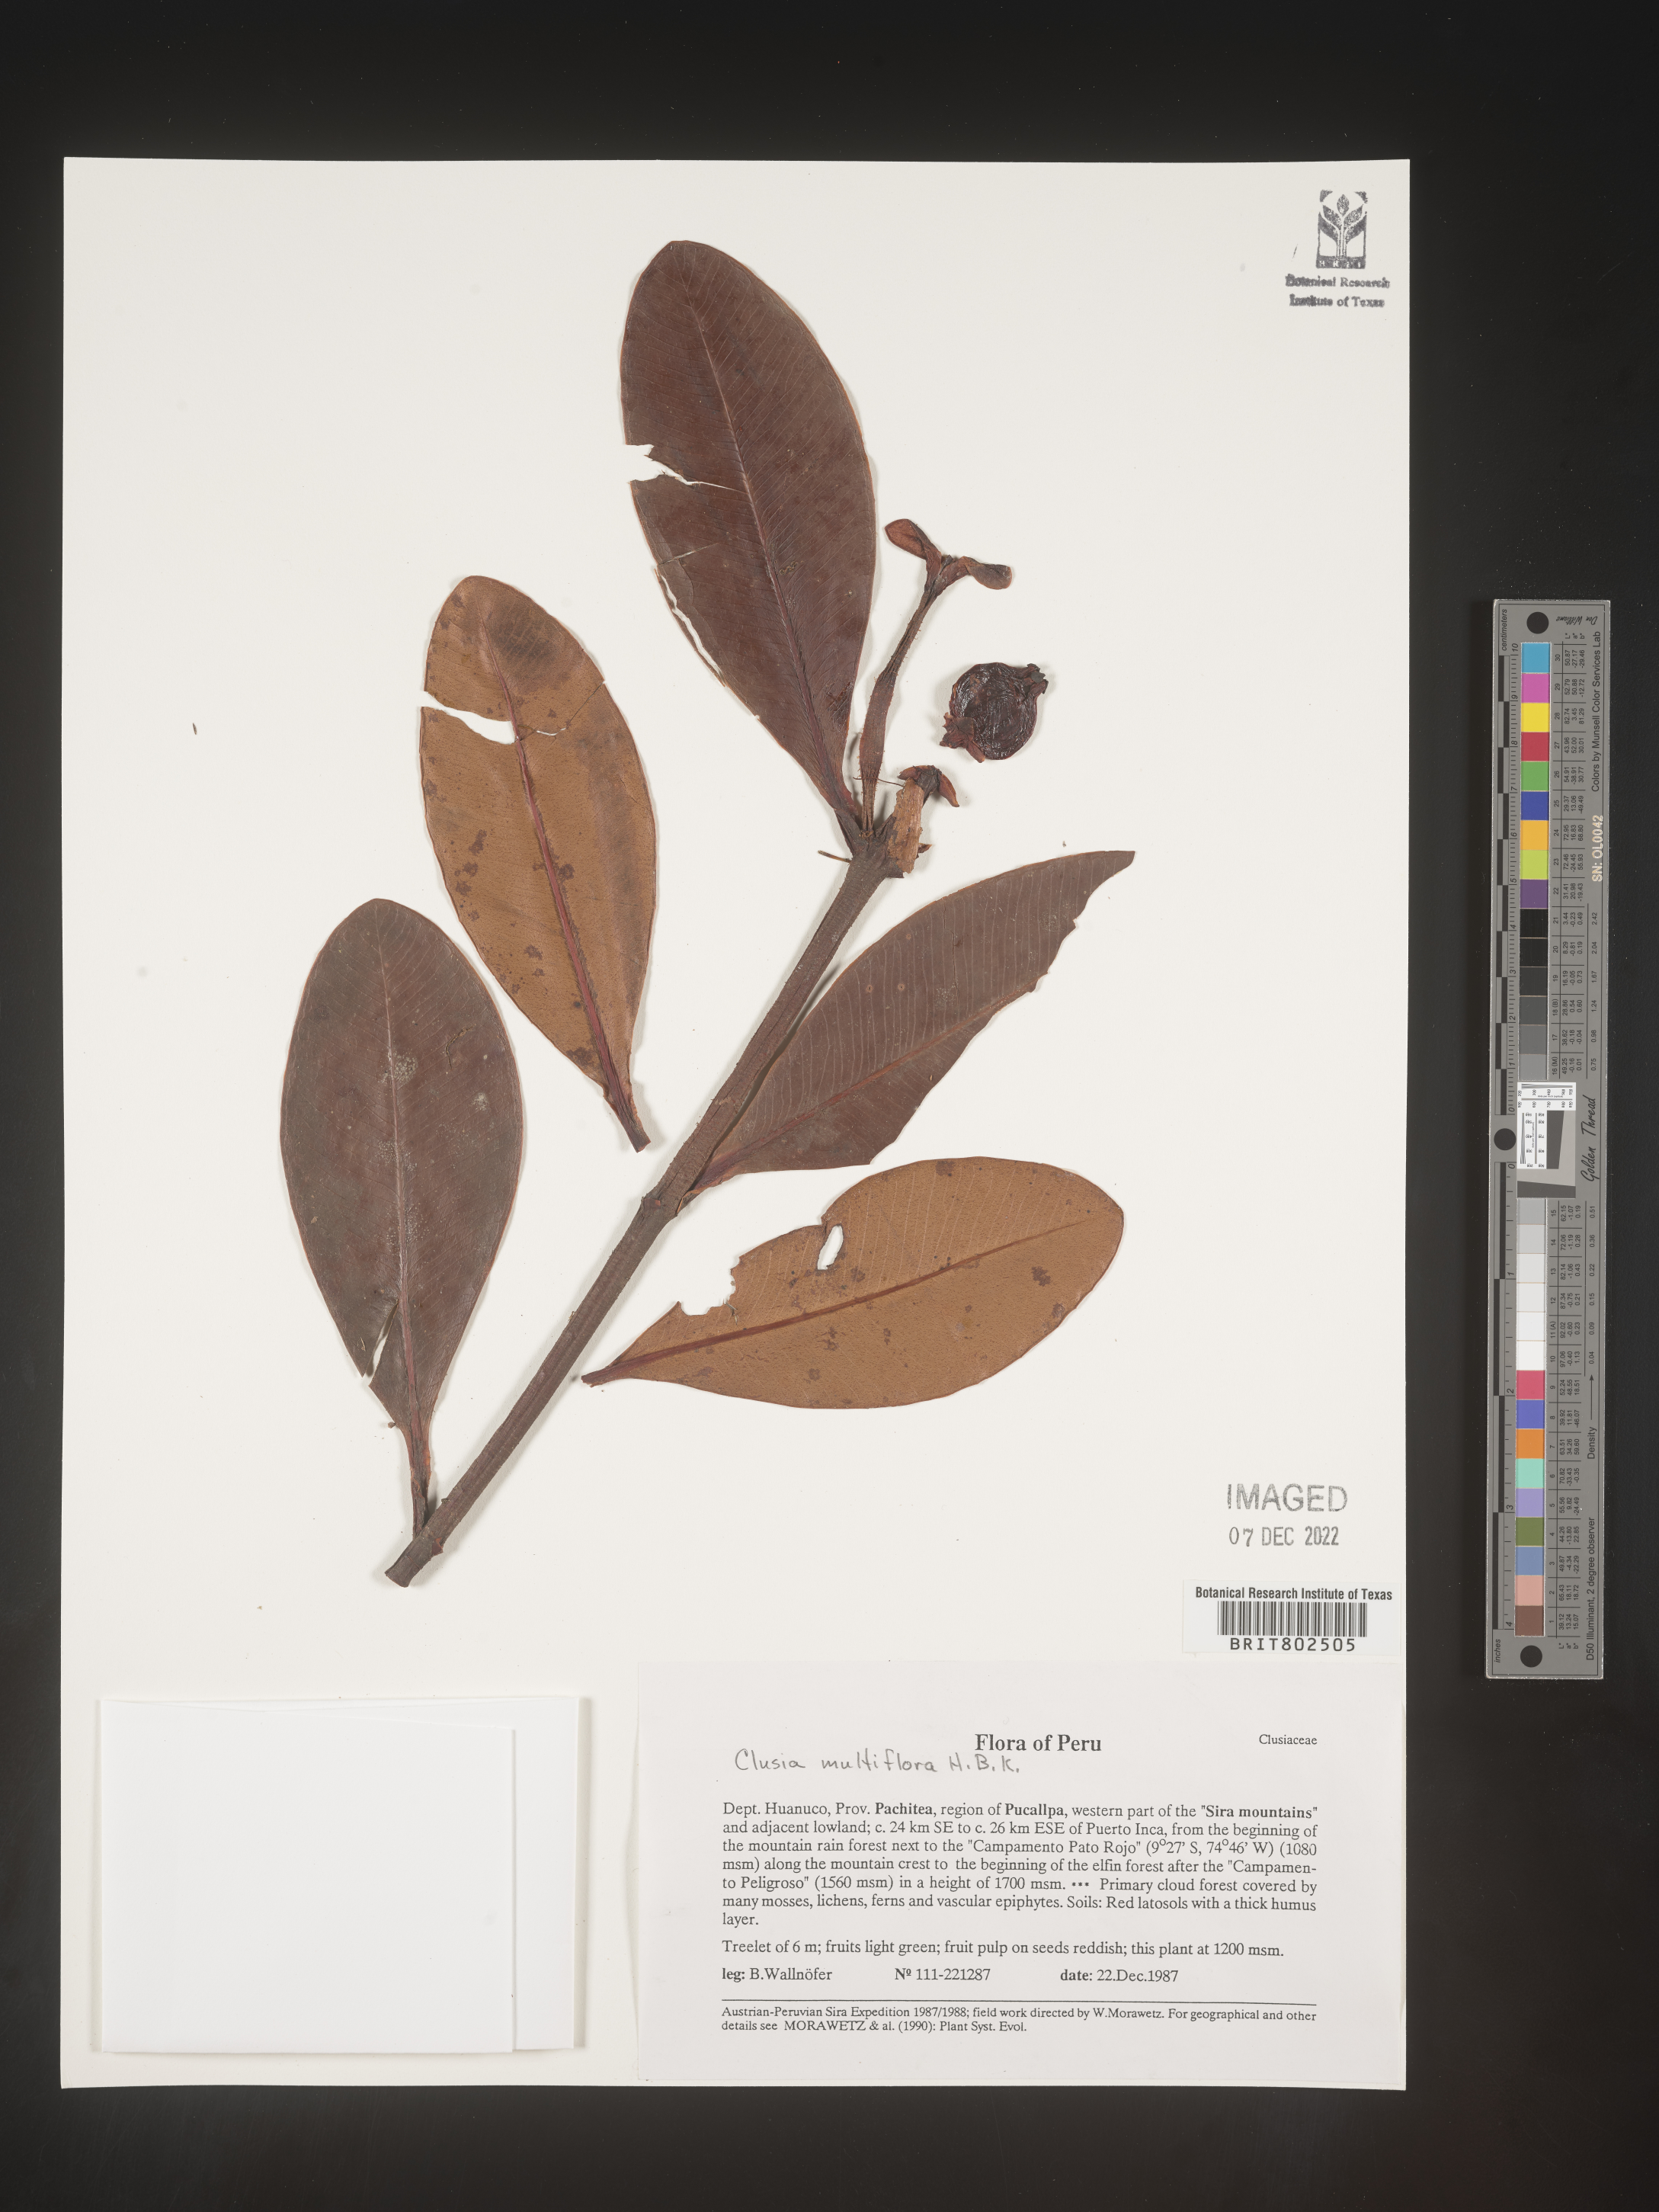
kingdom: Plantae
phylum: Tracheophyta
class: Magnoliopsida
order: Malpighiales
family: Clusiaceae
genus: Clusia
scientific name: Clusia multiflora
